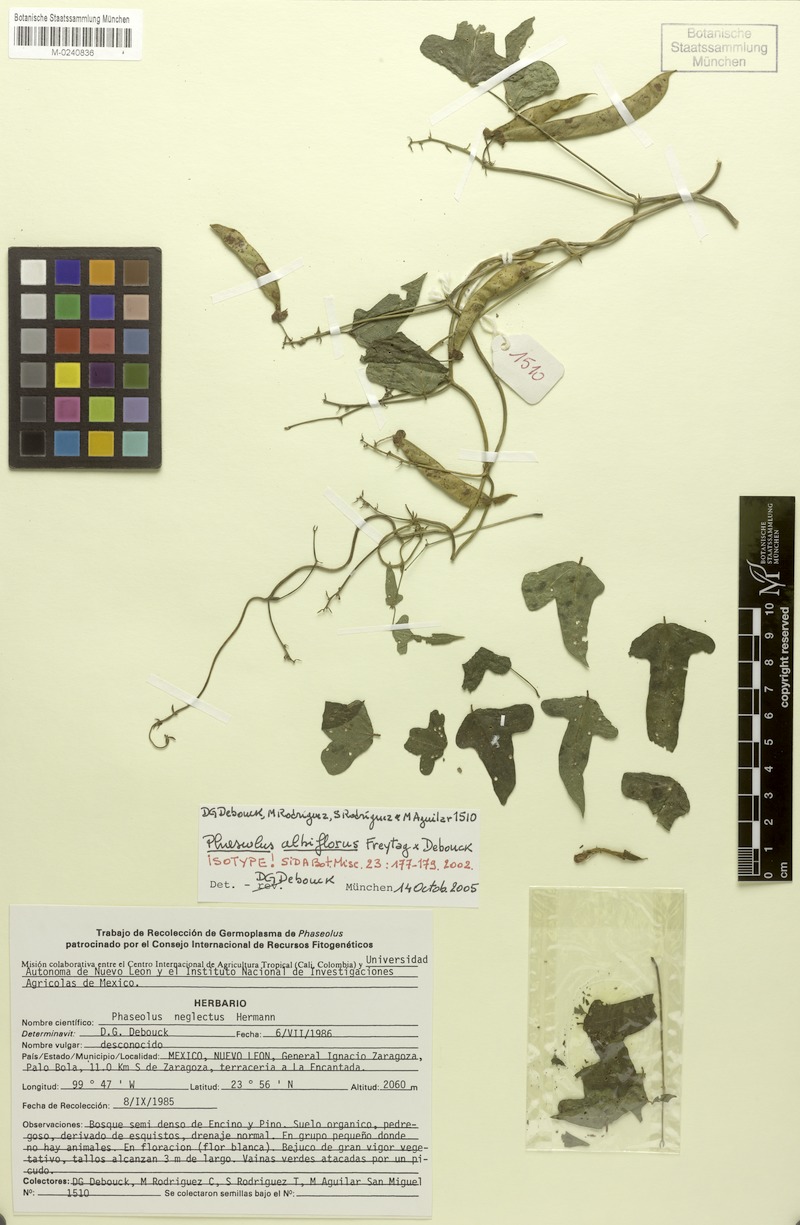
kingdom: Plantae
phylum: Tracheophyta
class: Magnoliopsida
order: Fabales
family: Fabaceae
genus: Phaseolus
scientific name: Phaseolus albiflorus
